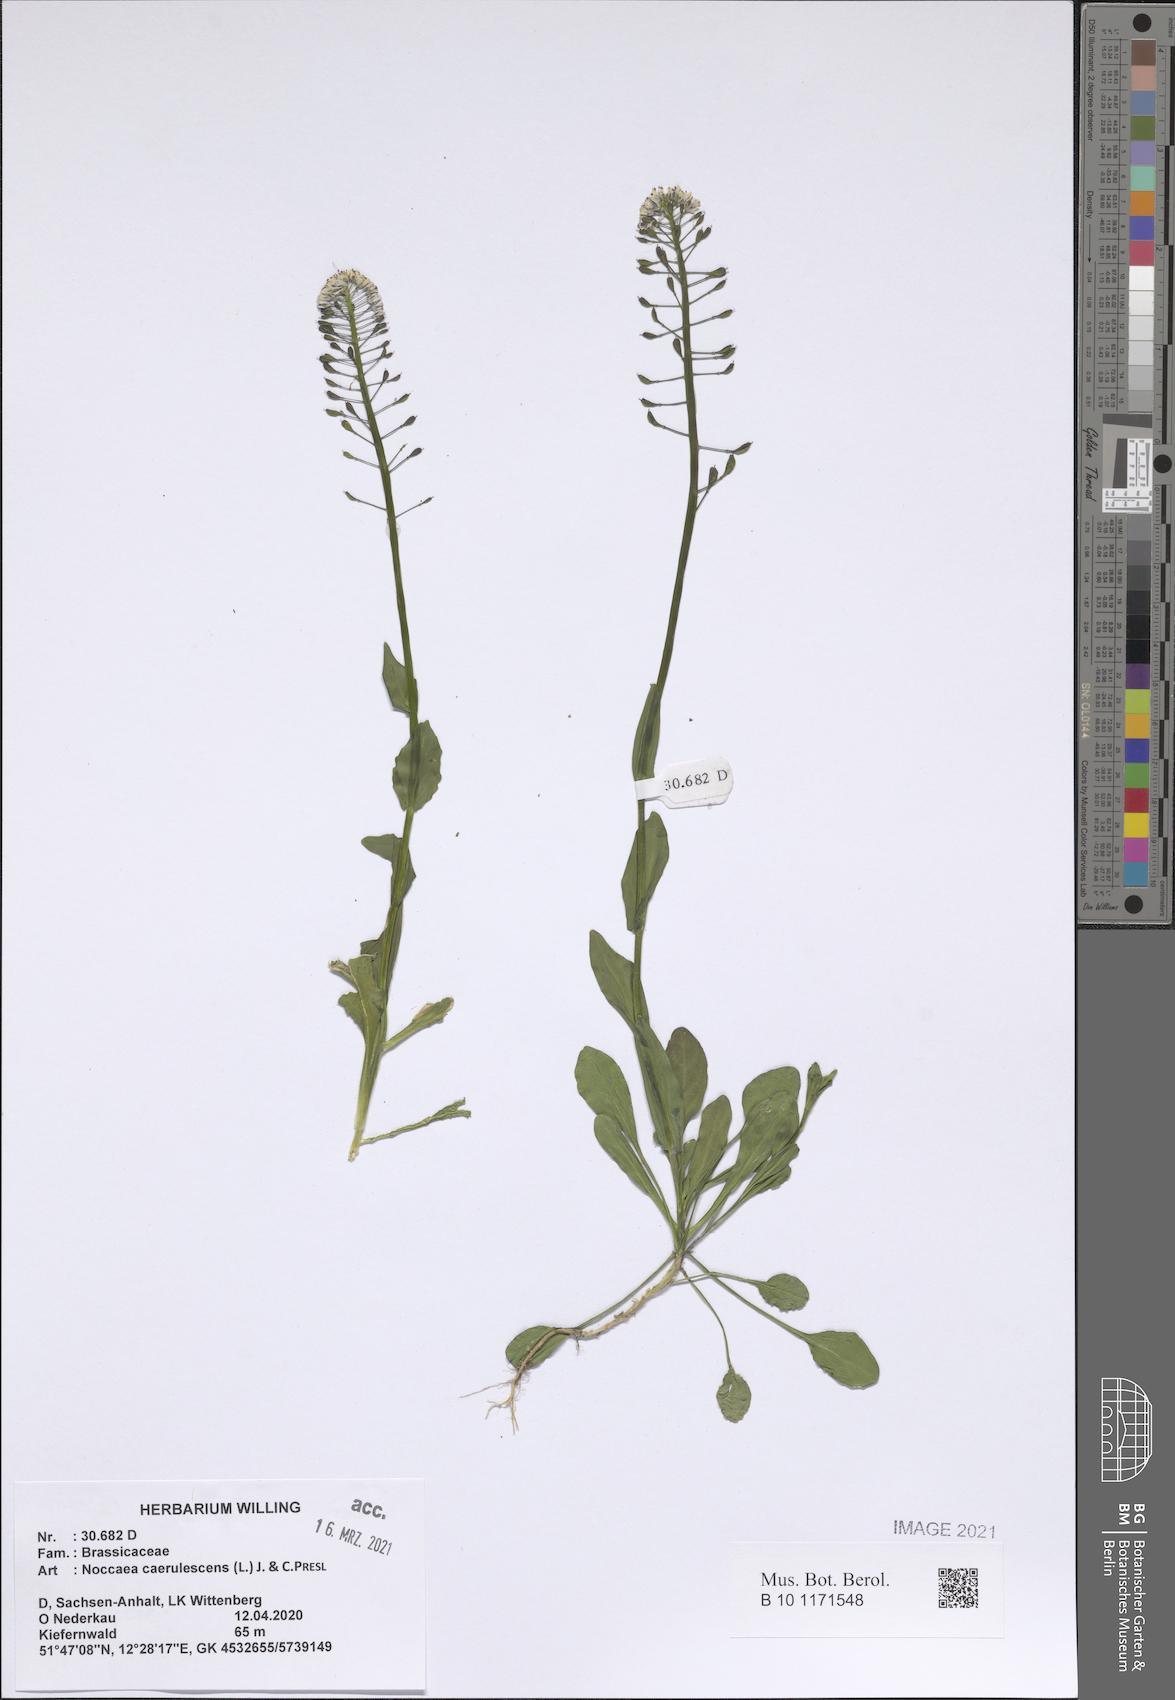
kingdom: Plantae
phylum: Tracheophyta
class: Magnoliopsida
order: Brassicales
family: Brassicaceae
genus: Noccaea
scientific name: Noccaea caerulescens
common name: Alpine pennycress
